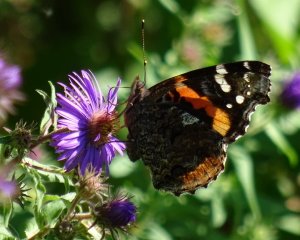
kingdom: Animalia
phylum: Arthropoda
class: Insecta
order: Lepidoptera
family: Nymphalidae
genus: Vanessa
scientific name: Vanessa atalanta
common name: Red Admiral
